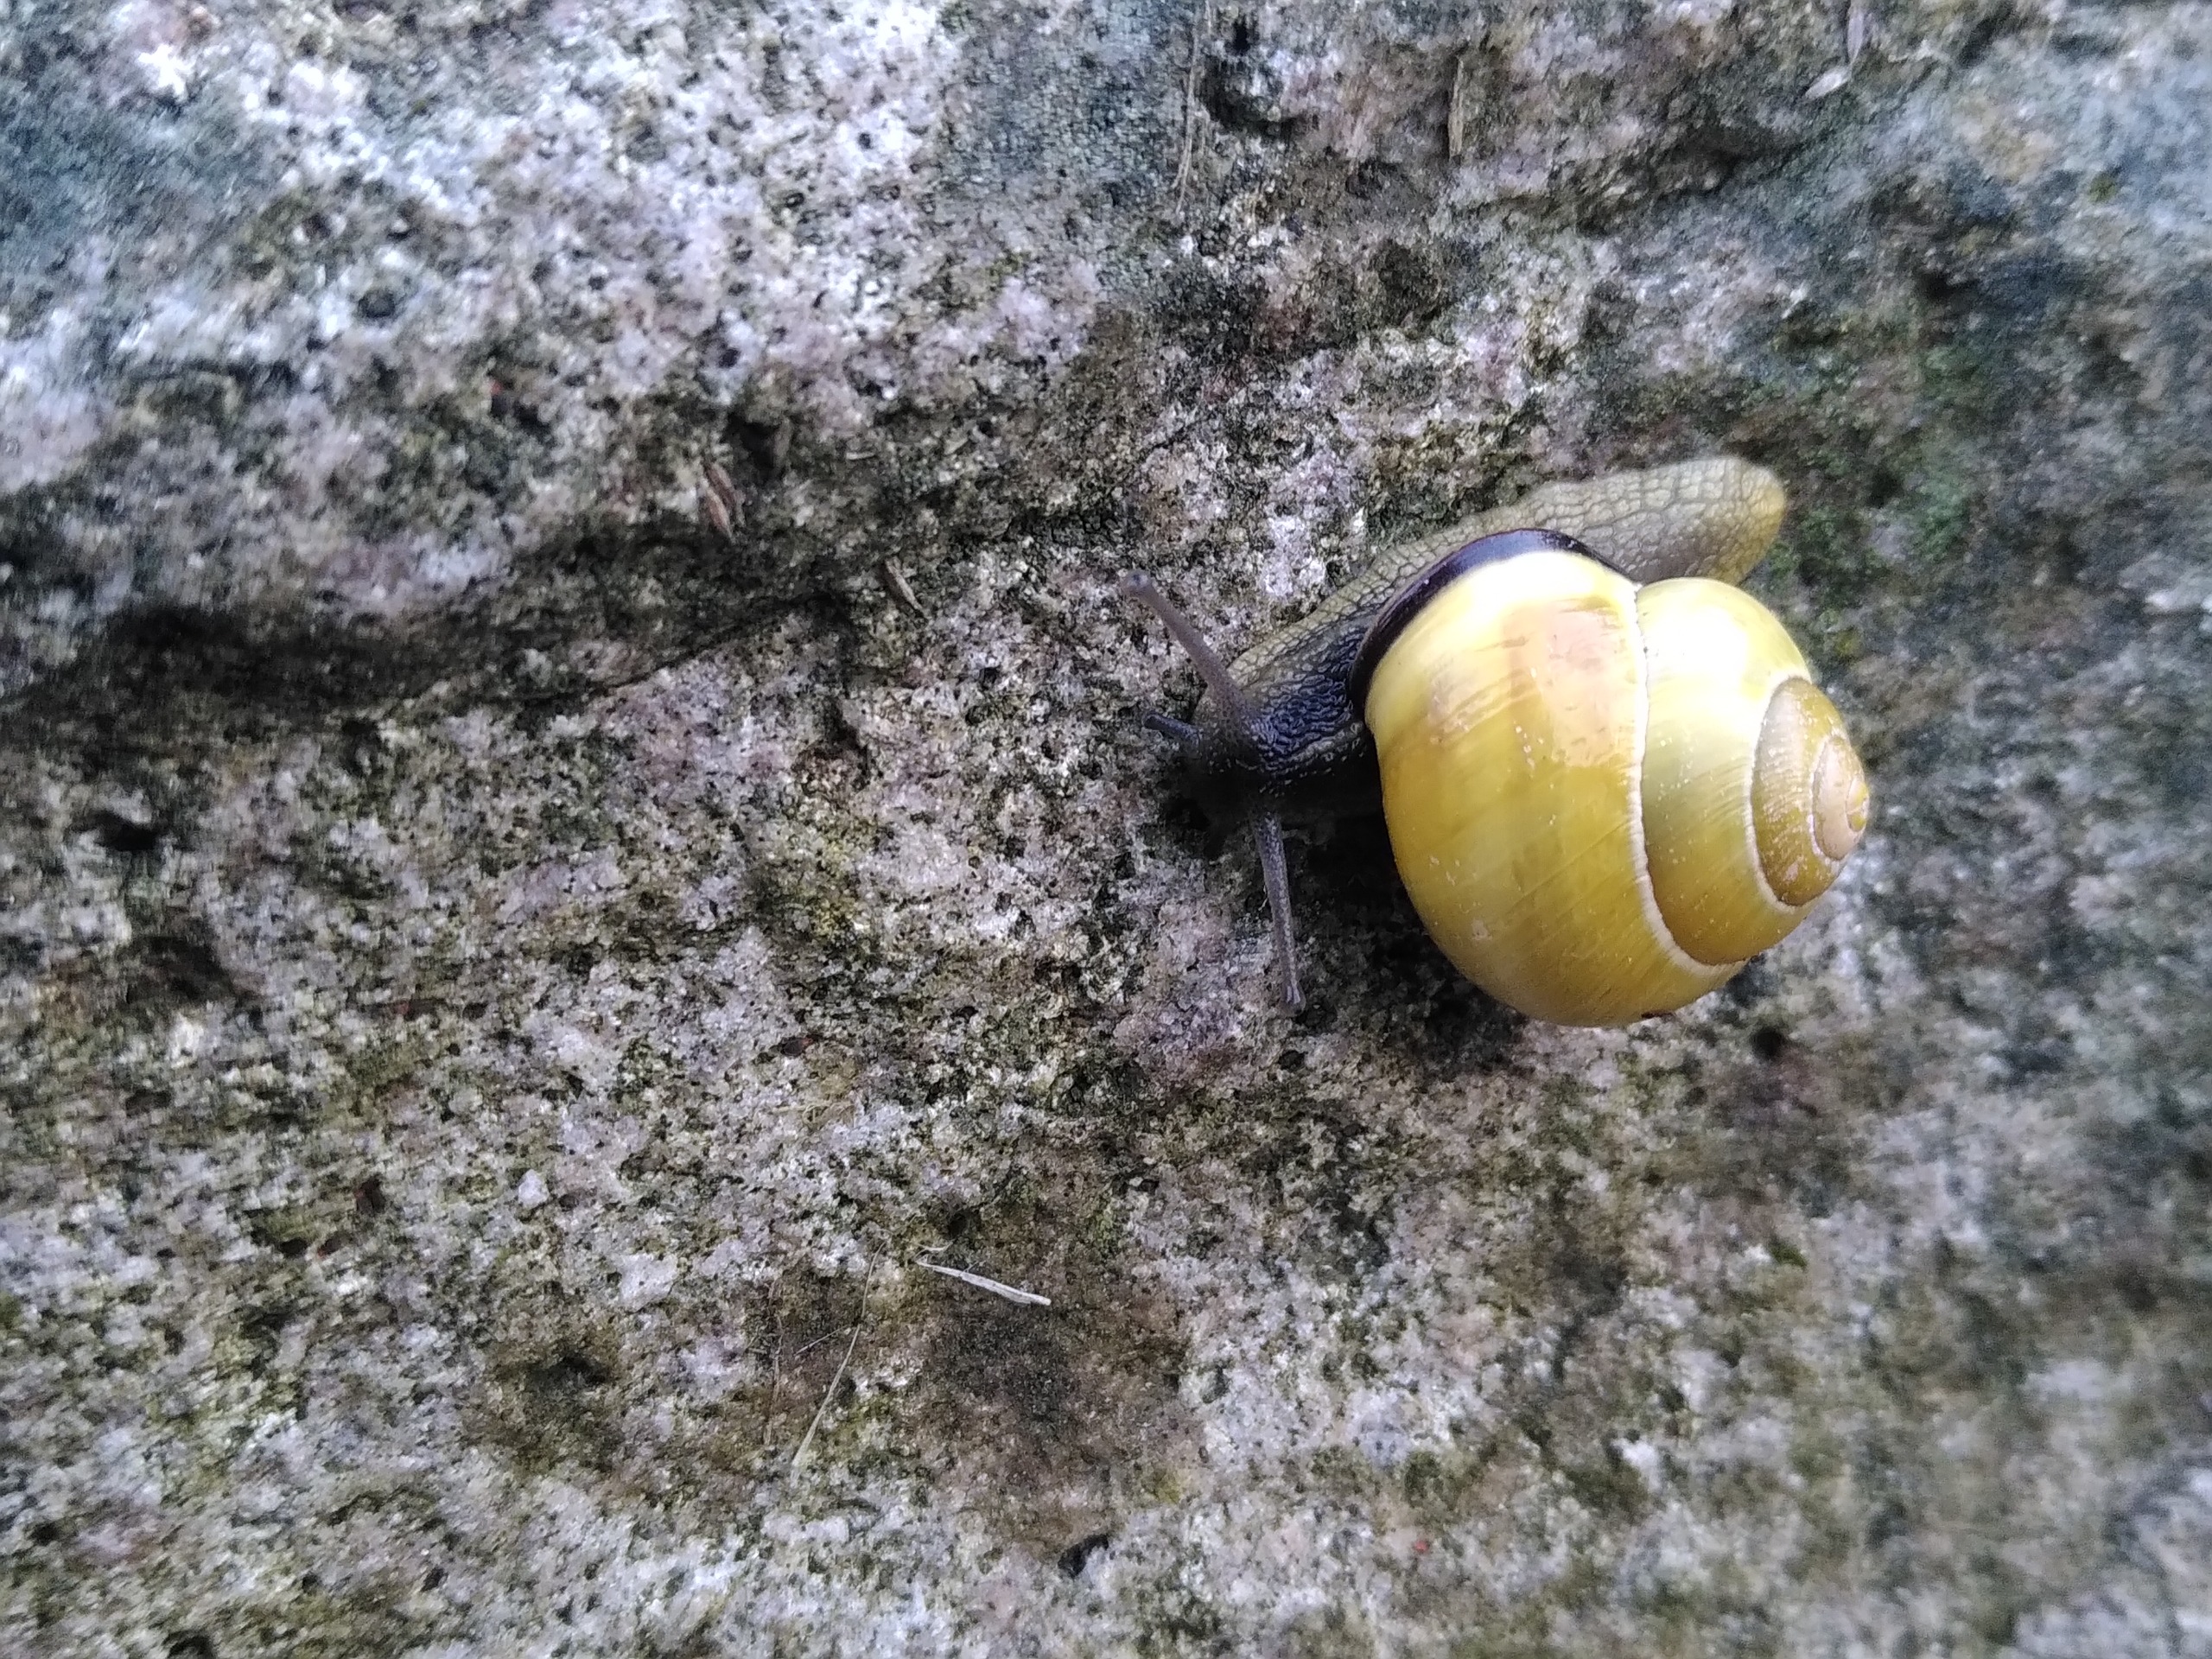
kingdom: Animalia
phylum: Mollusca
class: Gastropoda
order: Stylommatophora
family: Helicidae
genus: Cepaea
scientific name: Cepaea nemoralis
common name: Lundsnegl
